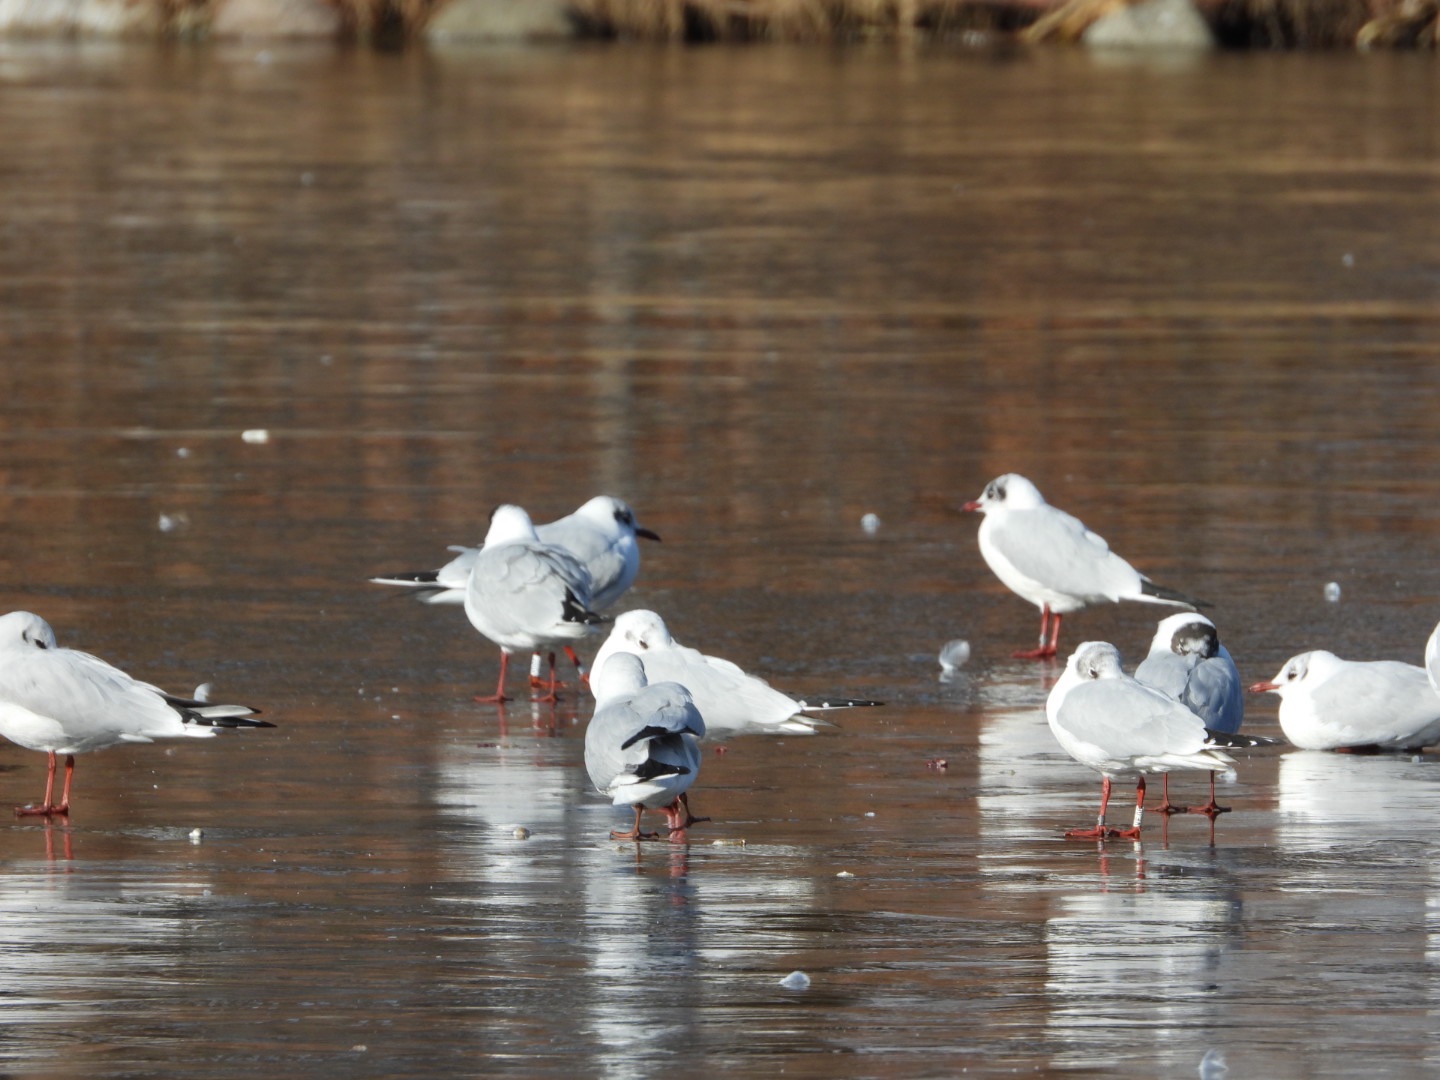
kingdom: Animalia
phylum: Chordata
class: Aves
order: Charadriiformes
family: Laridae
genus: Chroicocephalus
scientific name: Chroicocephalus ridibundus
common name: Hættemåge
